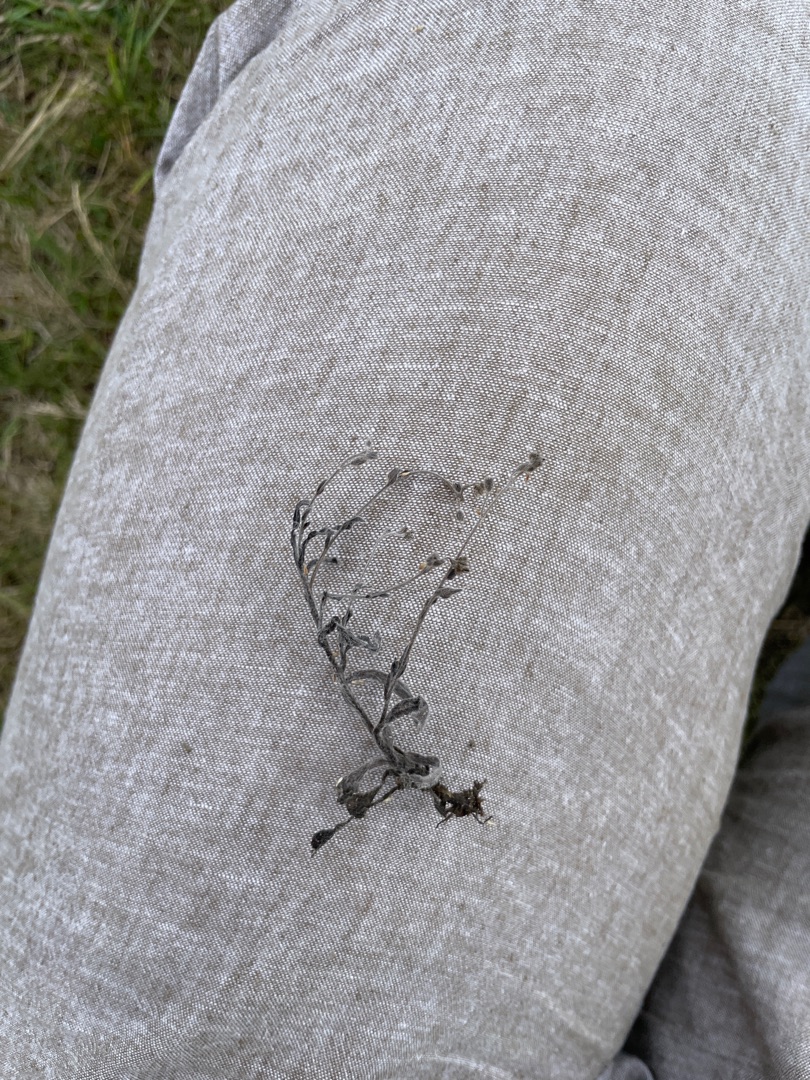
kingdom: Plantae
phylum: Tracheophyta
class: Magnoliopsida
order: Boraginales
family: Boraginaceae
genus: Myosotis
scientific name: Myosotis arvensis
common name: Mark-forglemmigej
